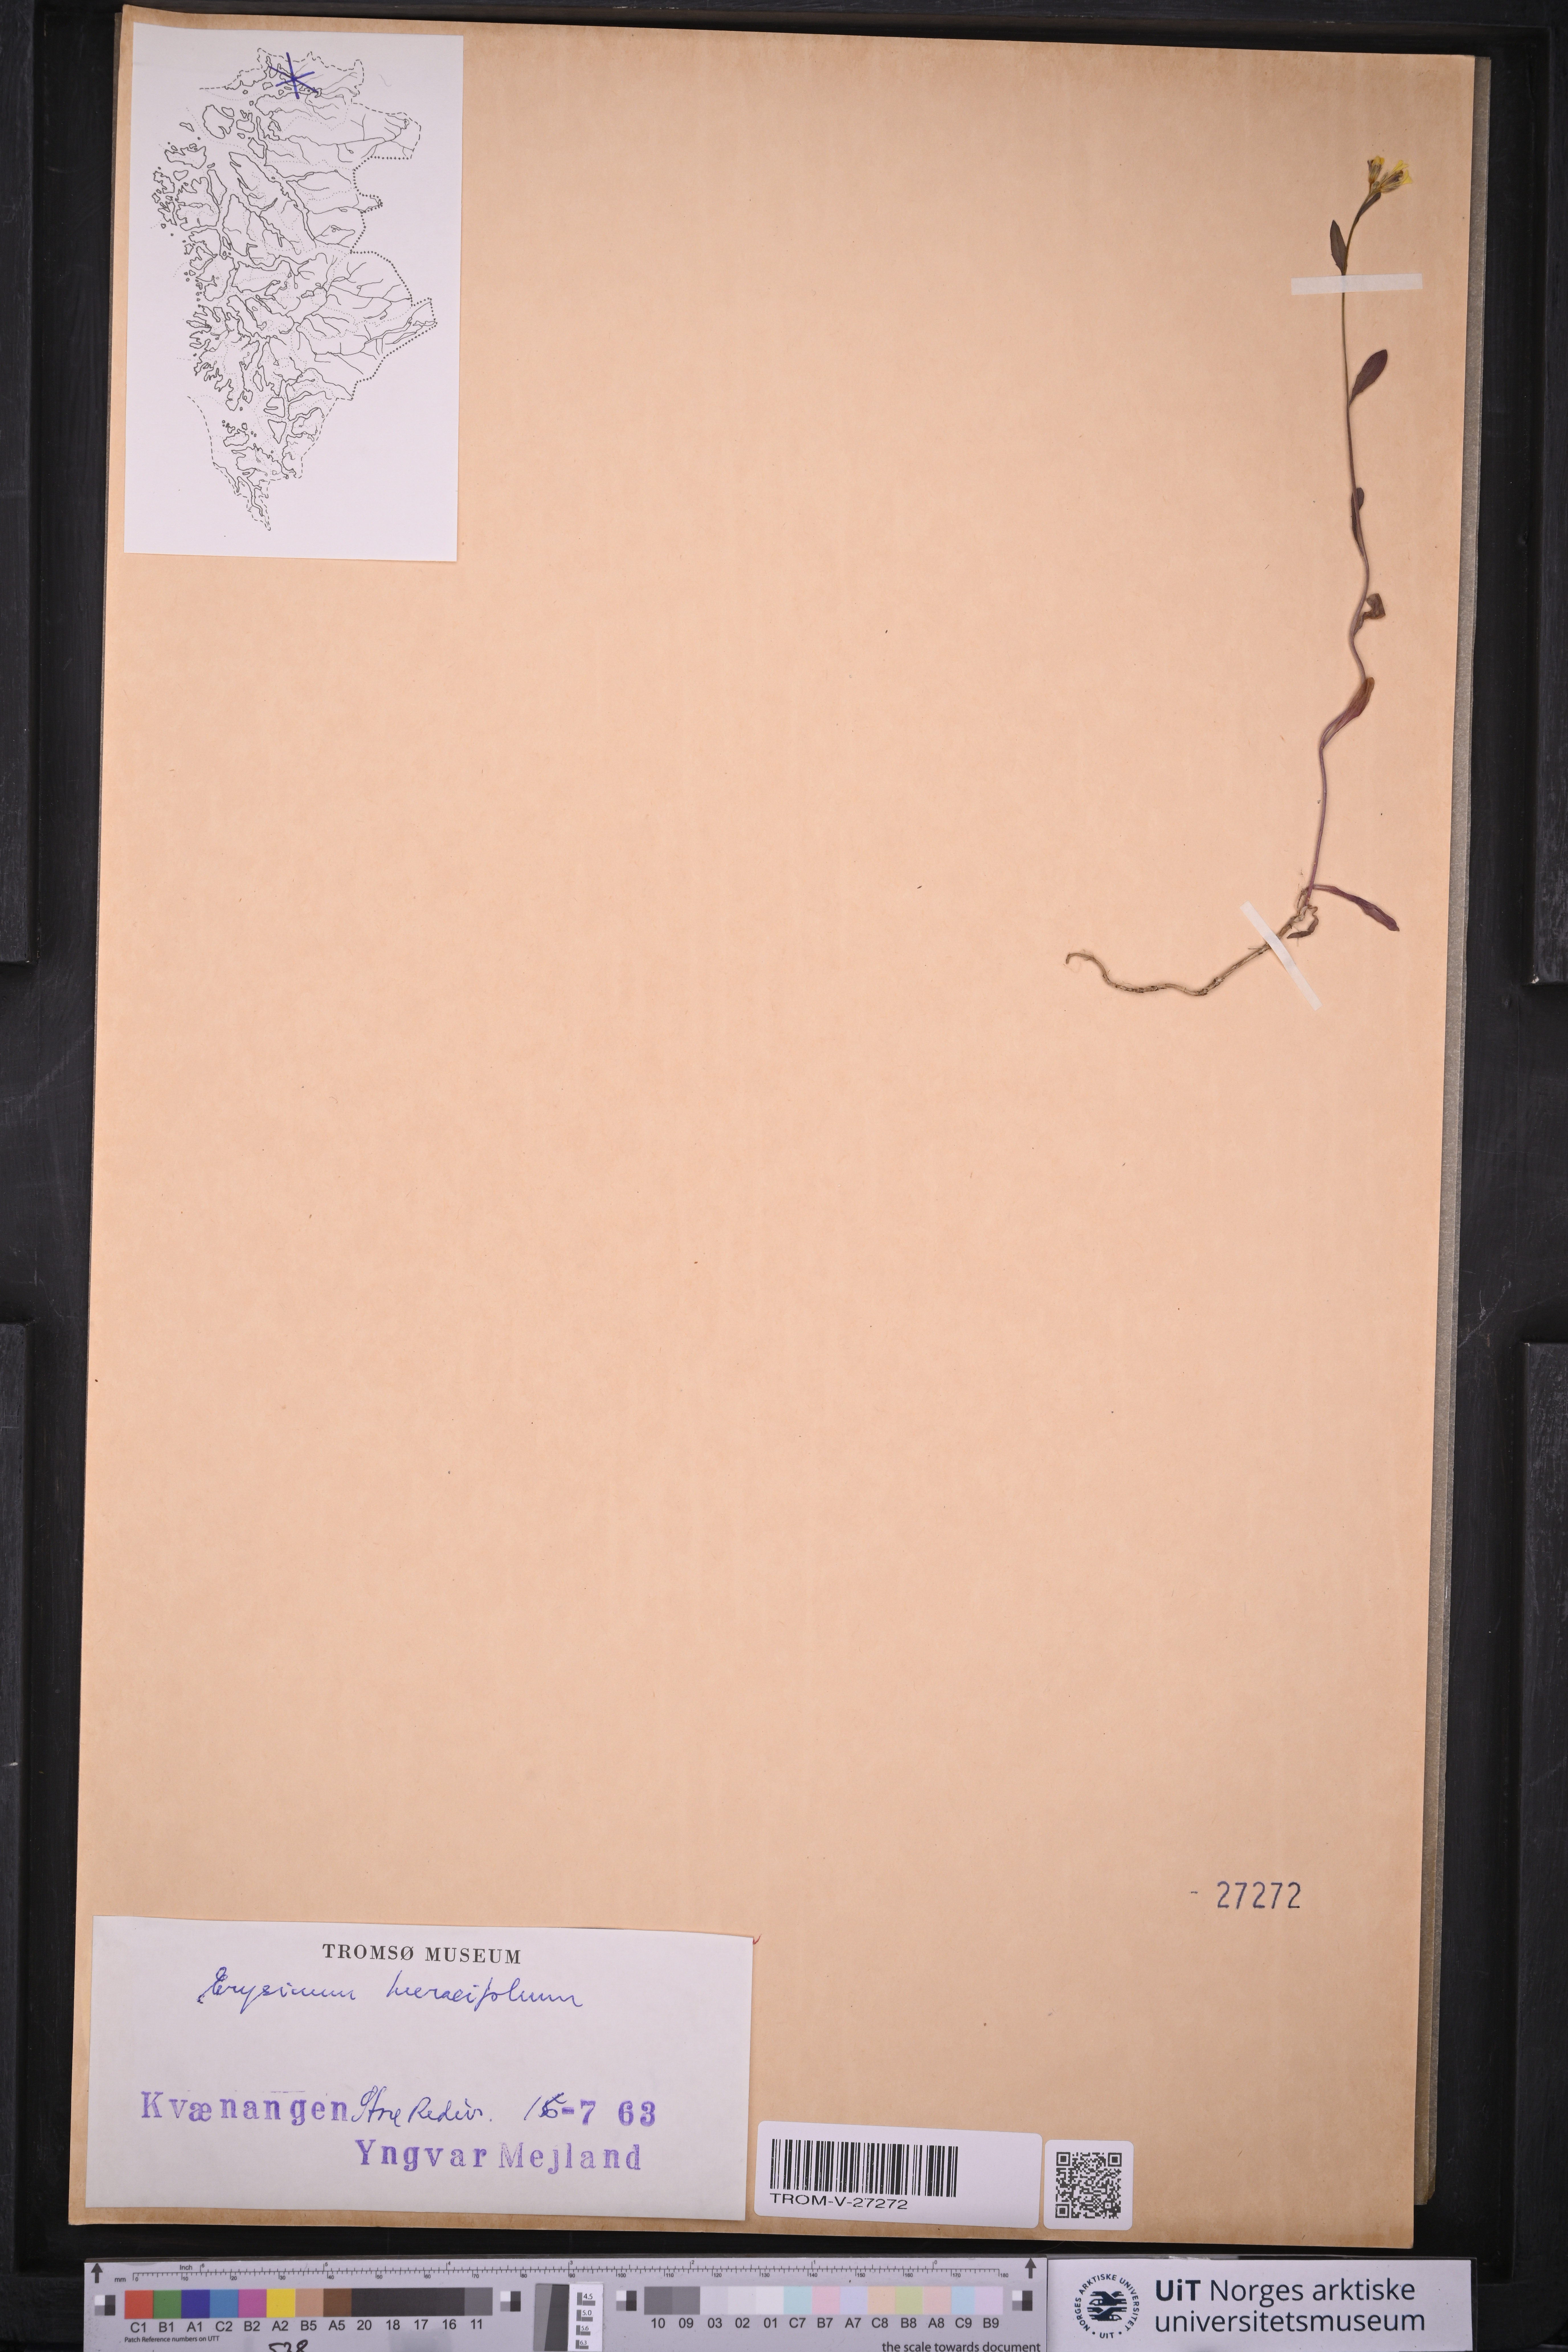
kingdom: Plantae
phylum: Tracheophyta
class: Magnoliopsida
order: Brassicales
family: Brassicaceae
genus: Erysimum
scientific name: Erysimum virgatum
